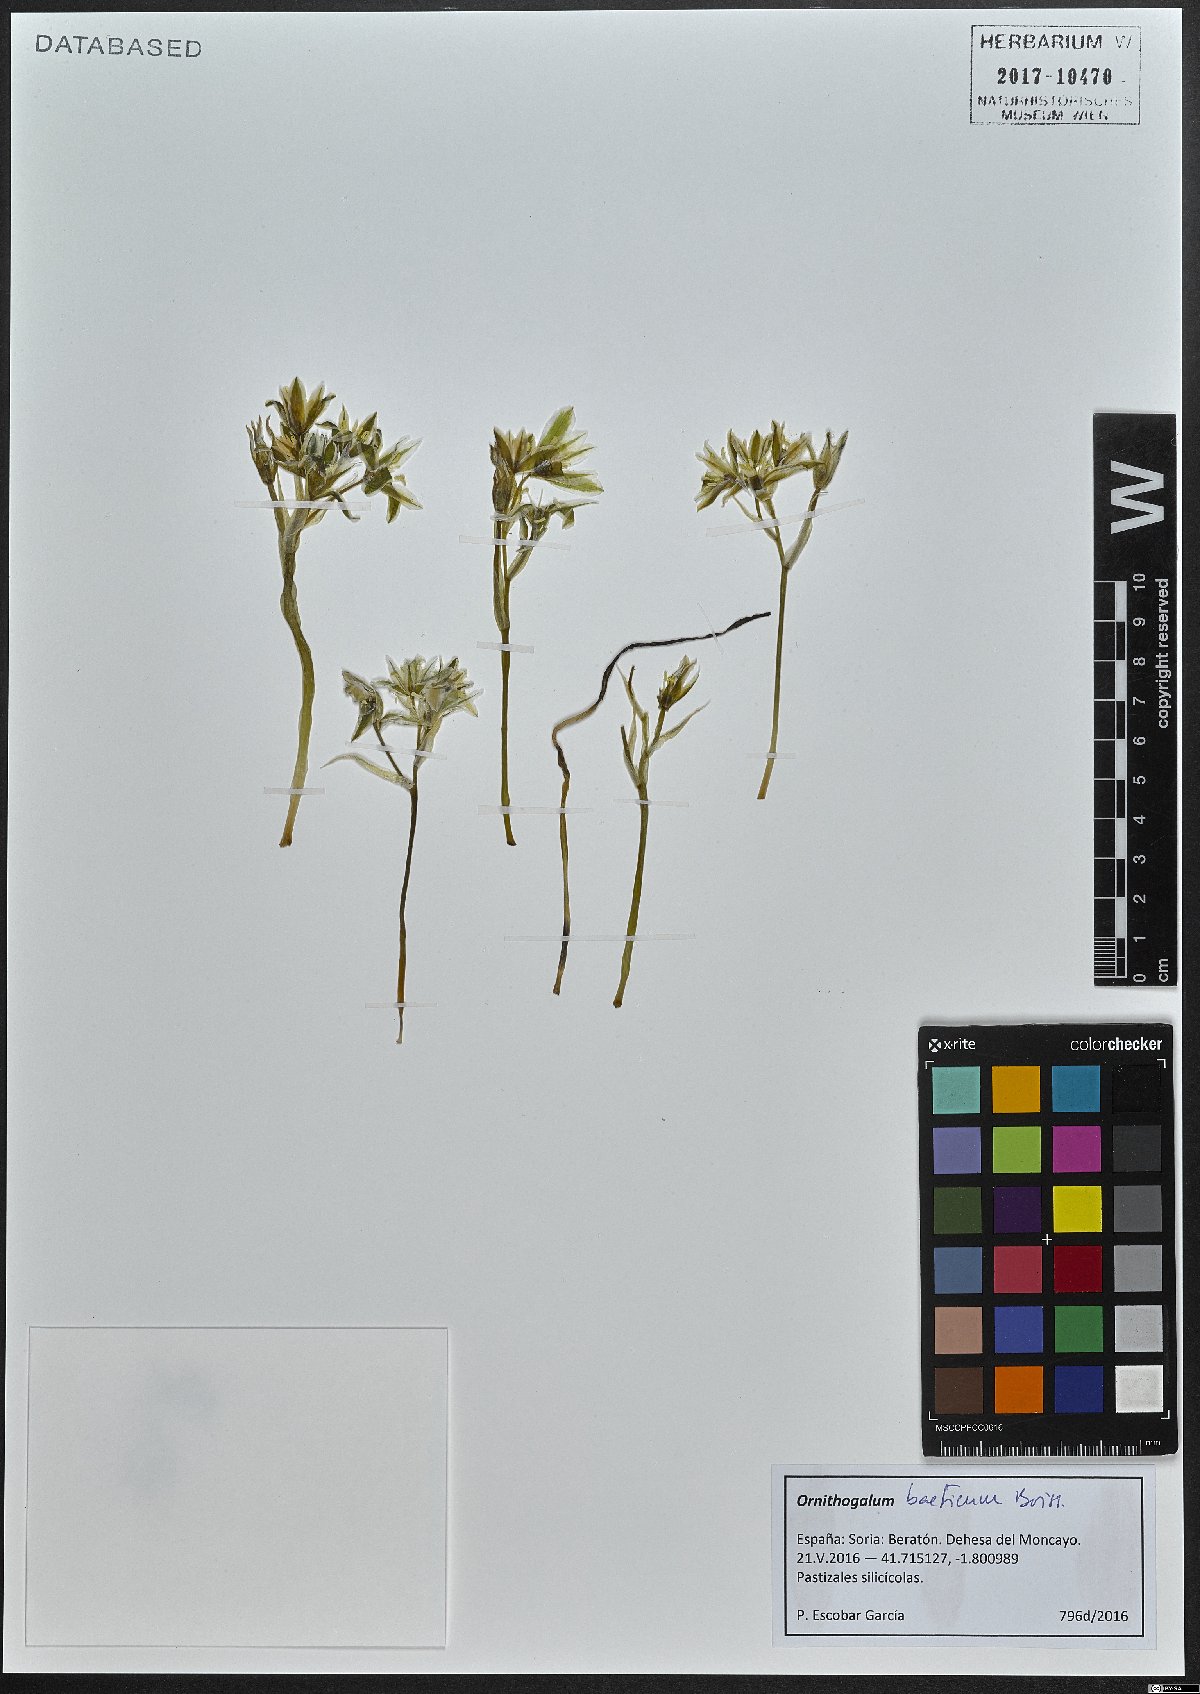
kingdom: Plantae
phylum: Tracheophyta
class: Liliopsida
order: Asparagales
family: Asparagaceae
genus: Ornithogalum
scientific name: Ornithogalum baeticum
